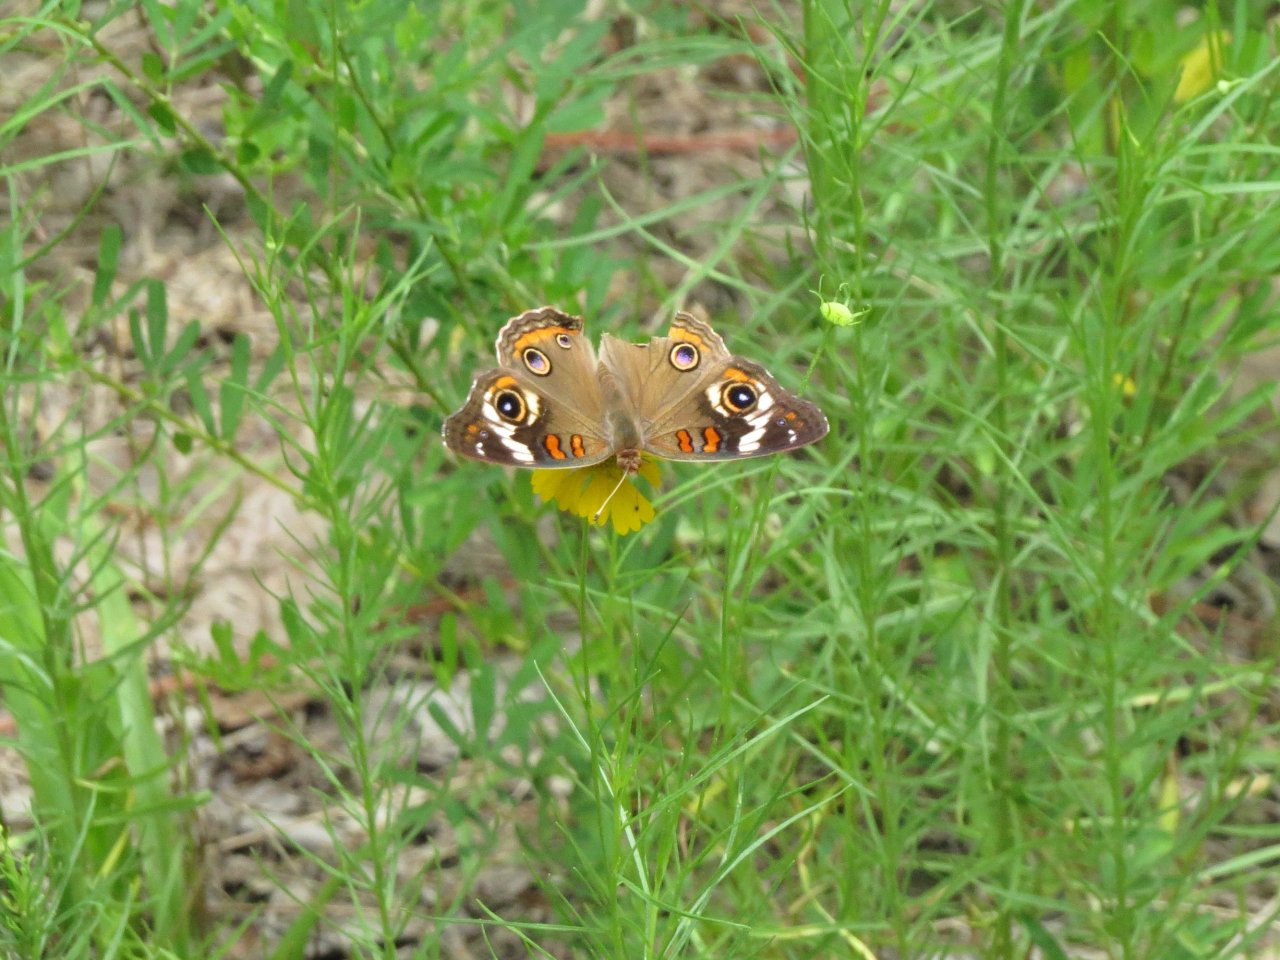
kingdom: Animalia
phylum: Arthropoda
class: Insecta
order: Lepidoptera
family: Nymphalidae
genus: Junonia
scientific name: Junonia coenia
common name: Common Buckeye
